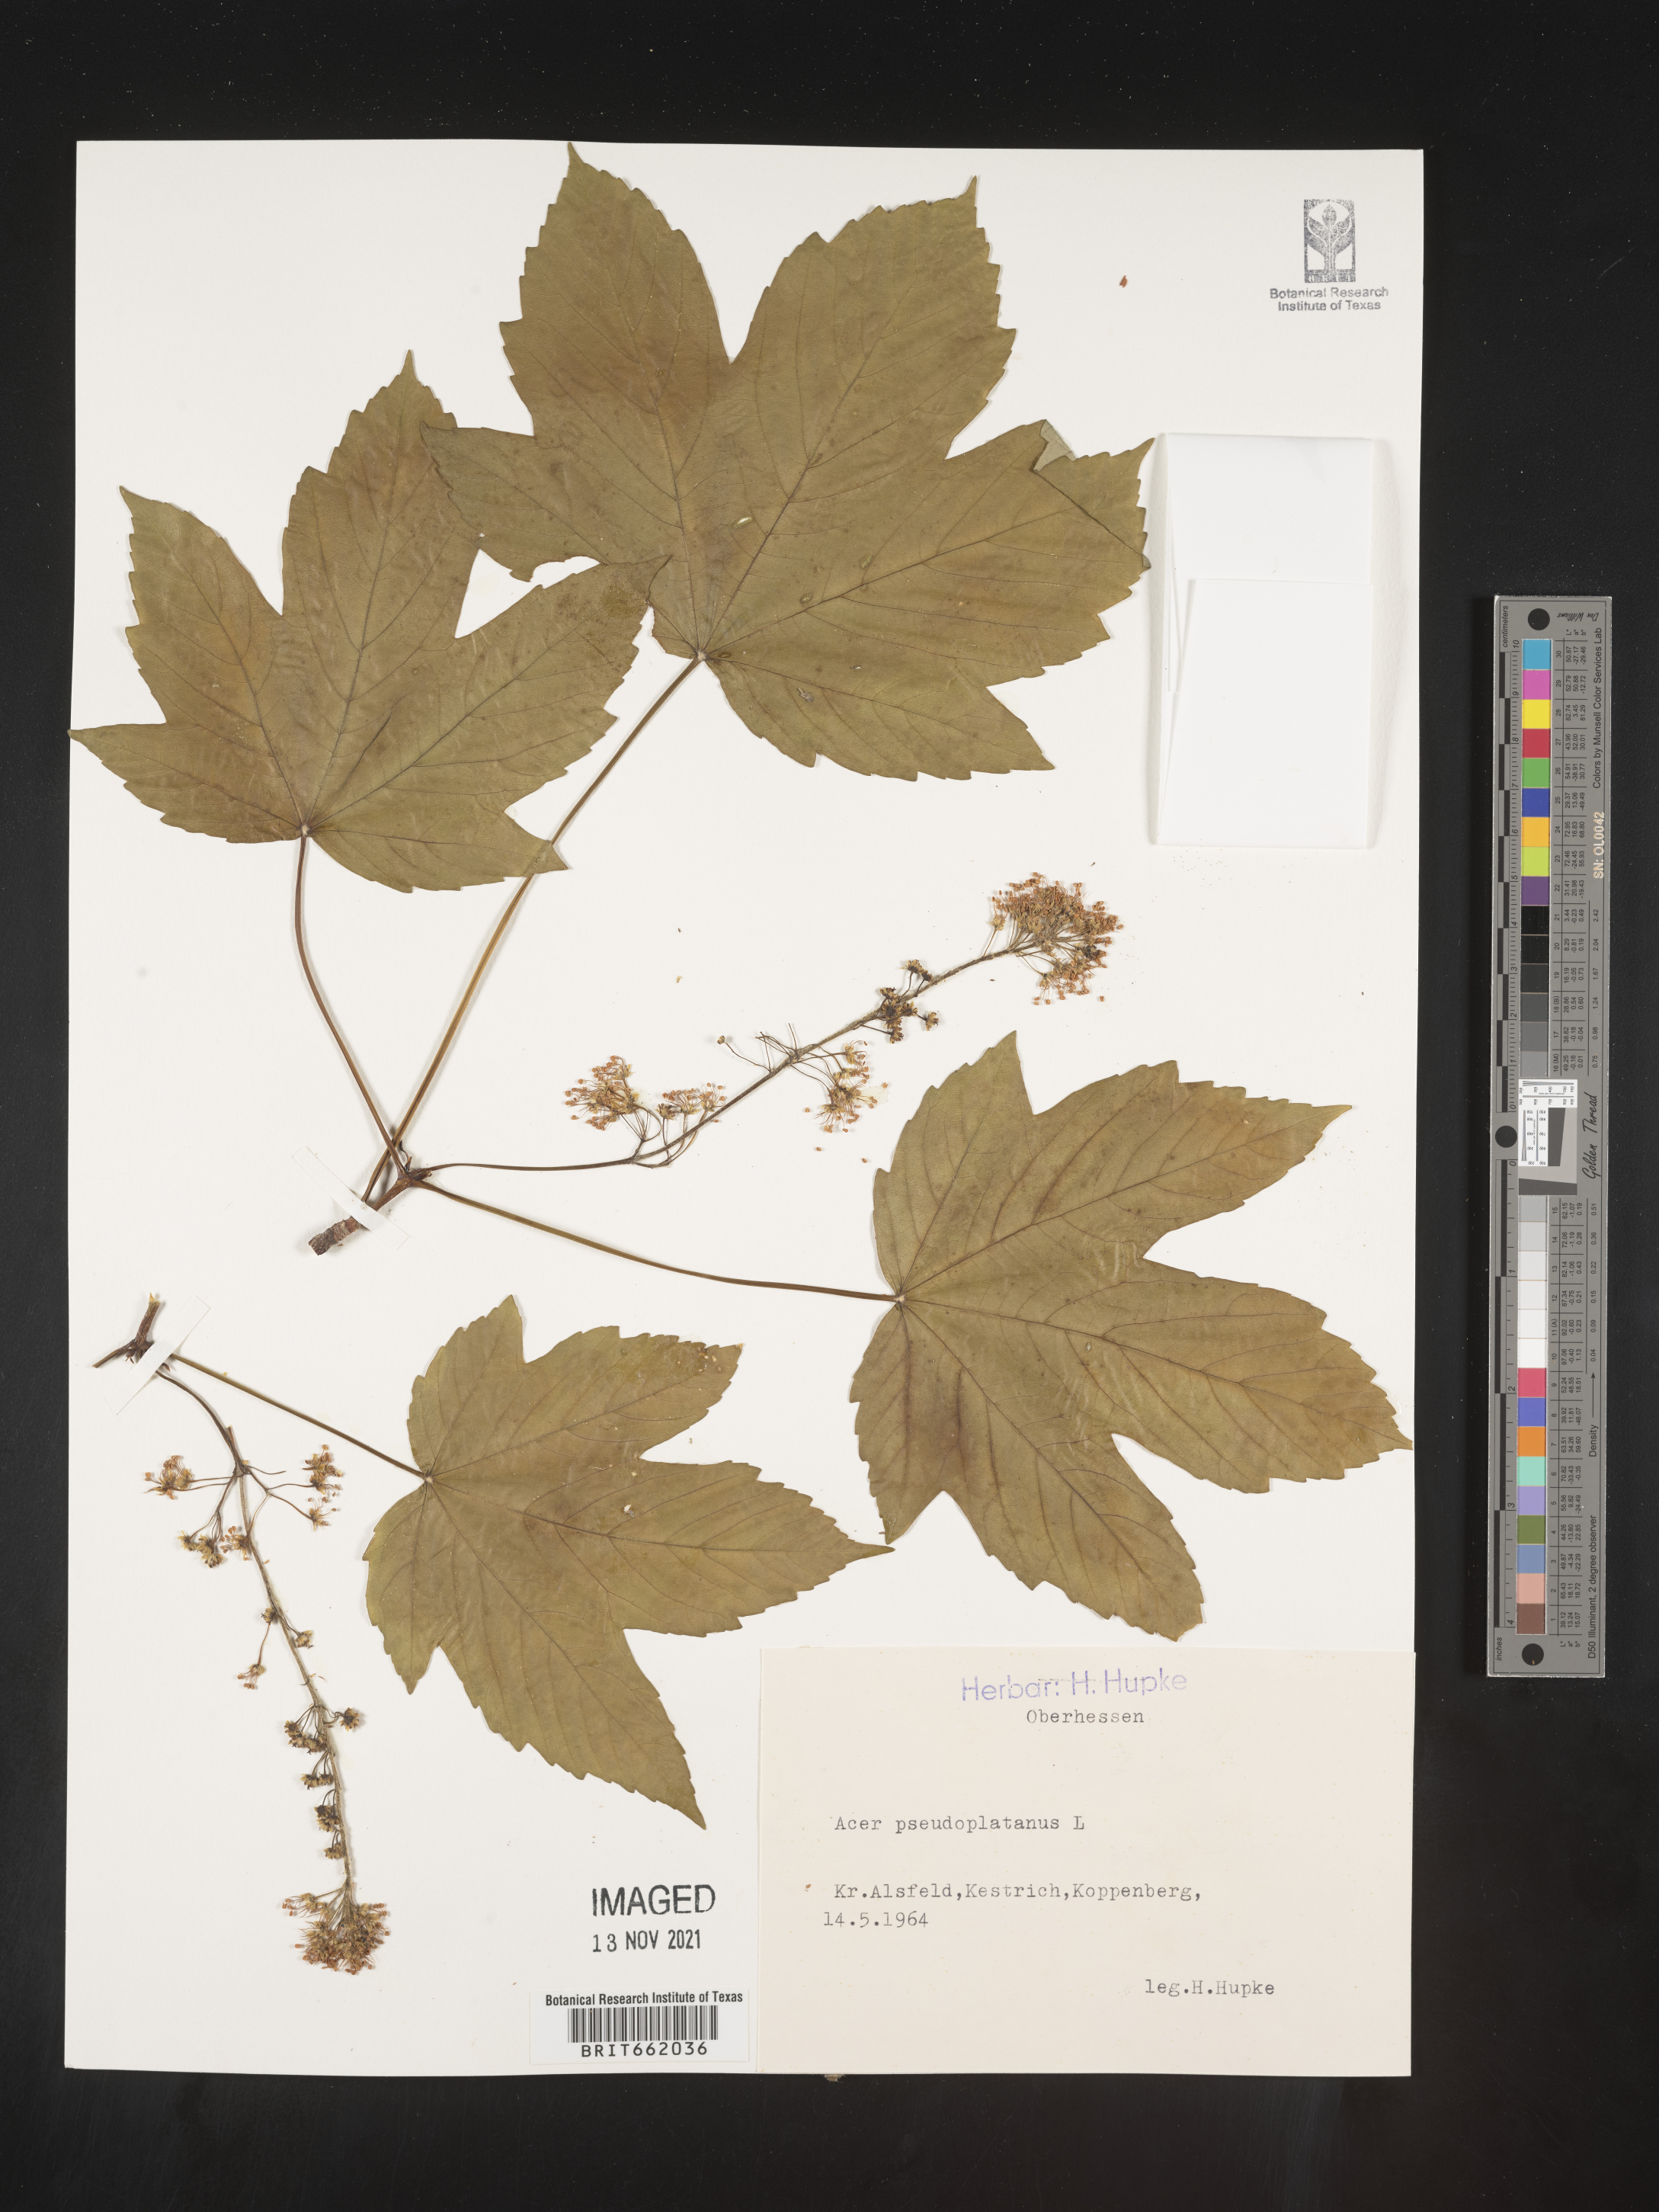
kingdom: Plantae
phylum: Tracheophyta
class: Magnoliopsida
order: Sapindales
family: Sapindaceae
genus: Acer
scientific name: Acer
